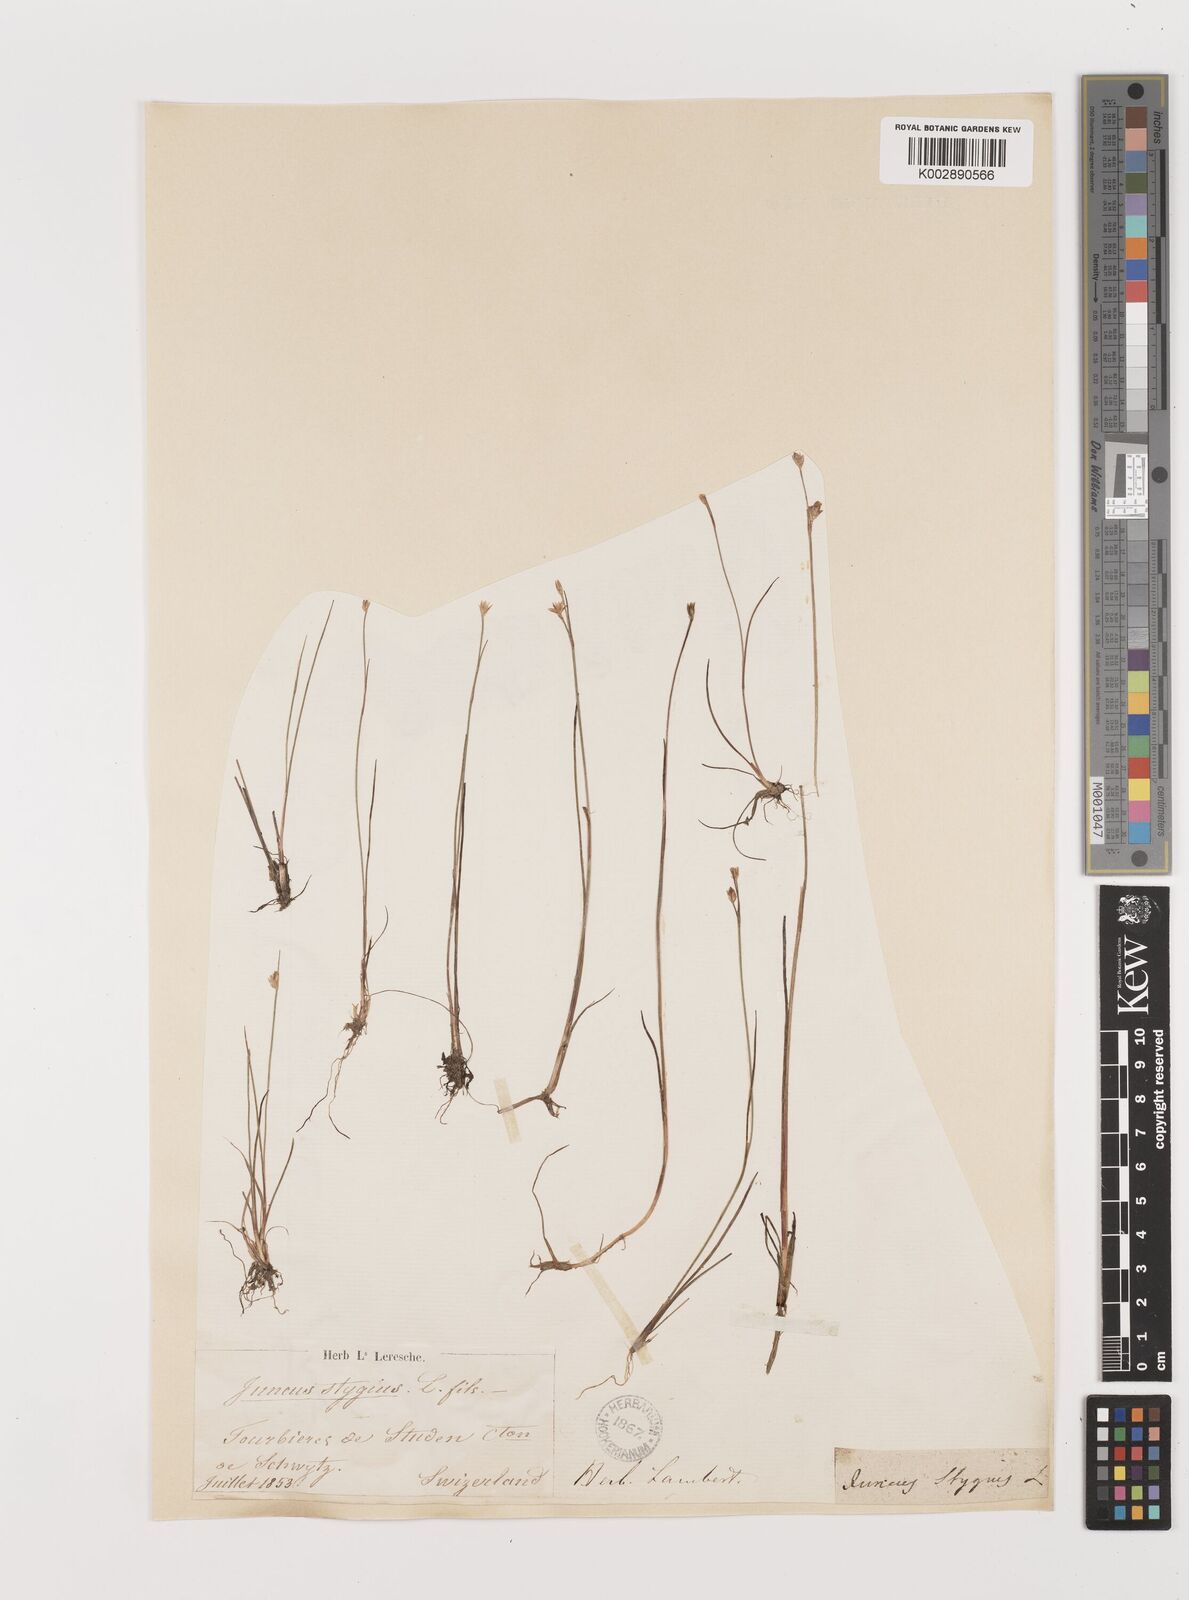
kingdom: Plantae
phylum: Tracheophyta
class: Liliopsida
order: Poales
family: Juncaceae
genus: Juncus
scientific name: Juncus stygius
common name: Bog rush
